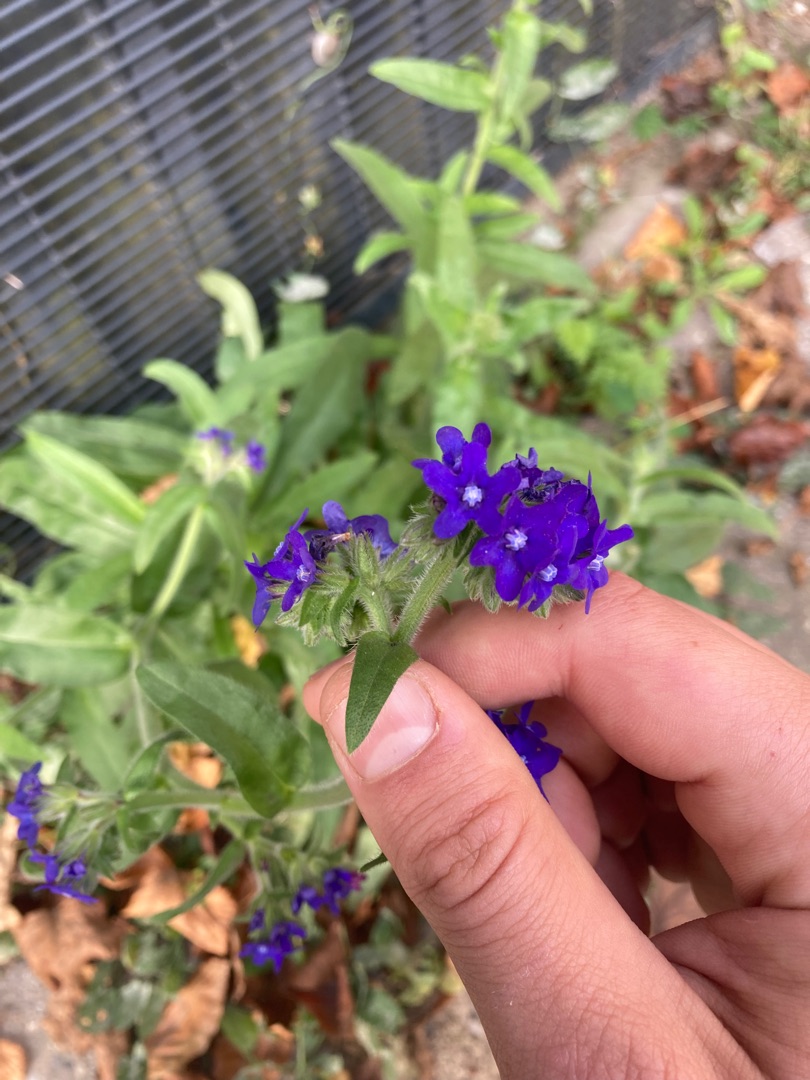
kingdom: Plantae
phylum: Tracheophyta
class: Magnoliopsida
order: Boraginales
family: Boraginaceae
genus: Anchusa
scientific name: Anchusa officinalis
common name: Læge-oksetunge
